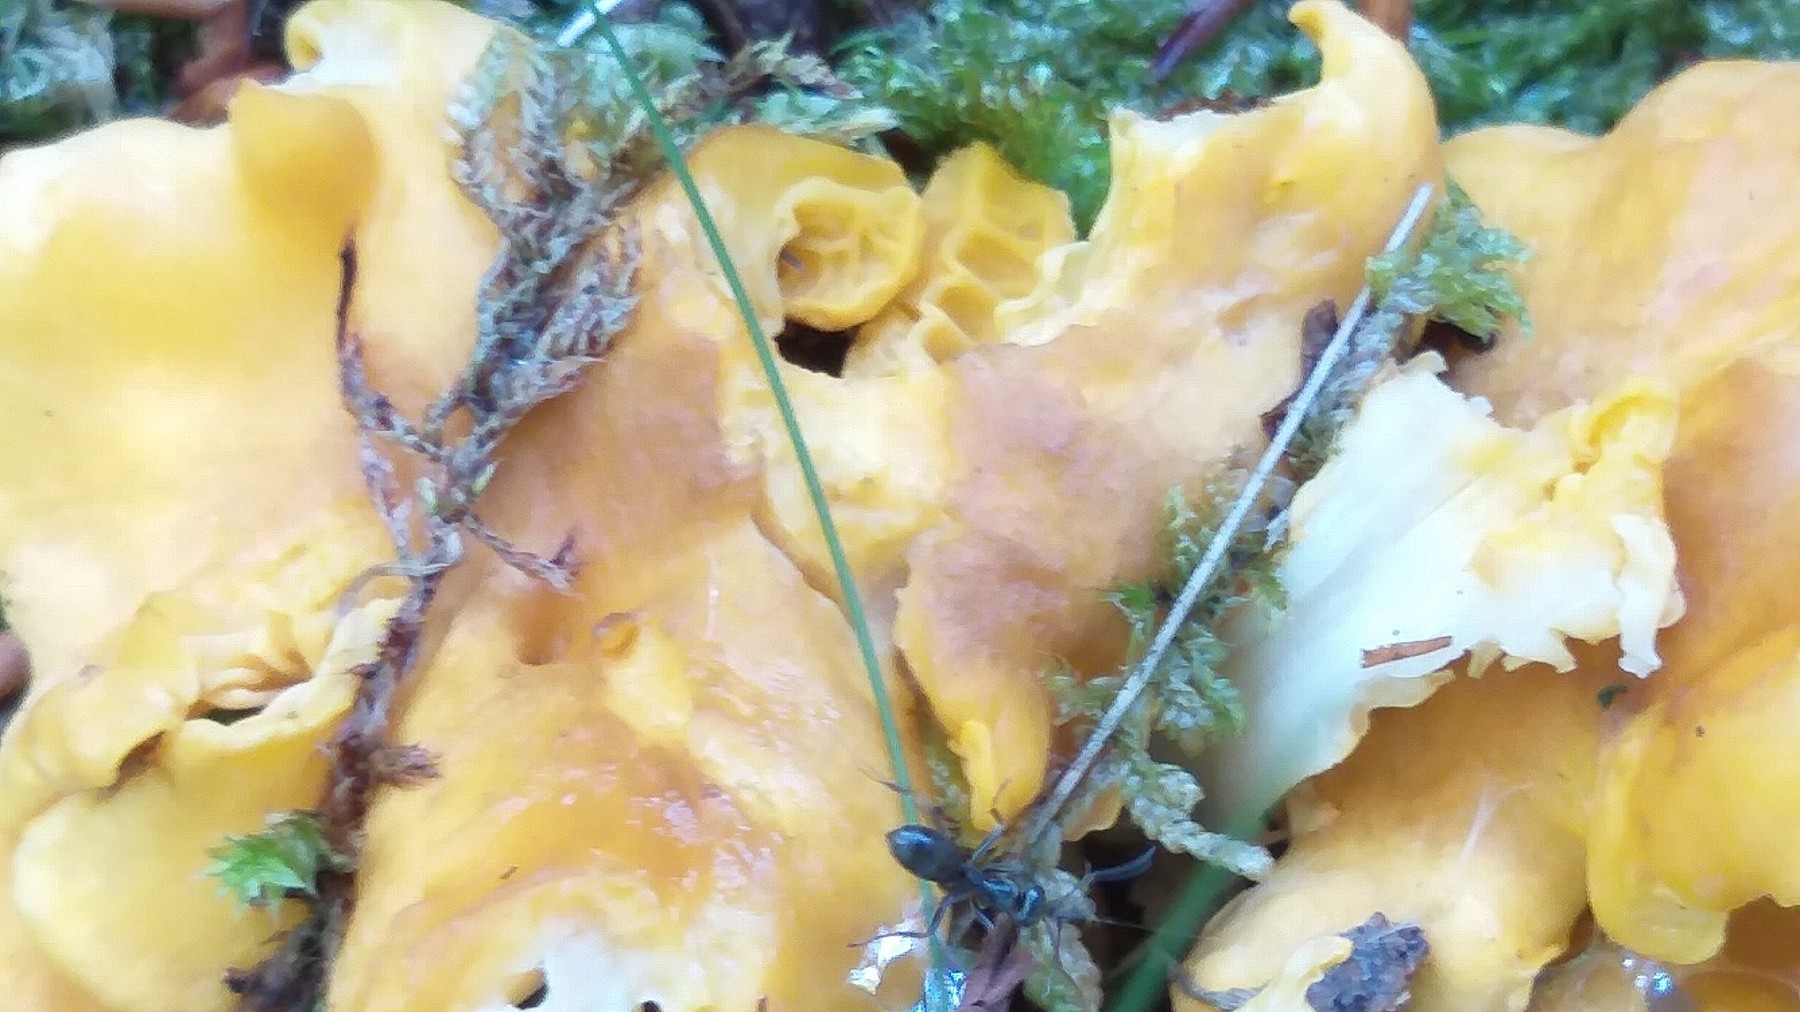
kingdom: Fungi
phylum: Basidiomycota
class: Agaricomycetes
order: Cantharellales
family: Hydnaceae
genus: Cantharellus
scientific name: Cantharellus amethysteus
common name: ametyst-kantarel
